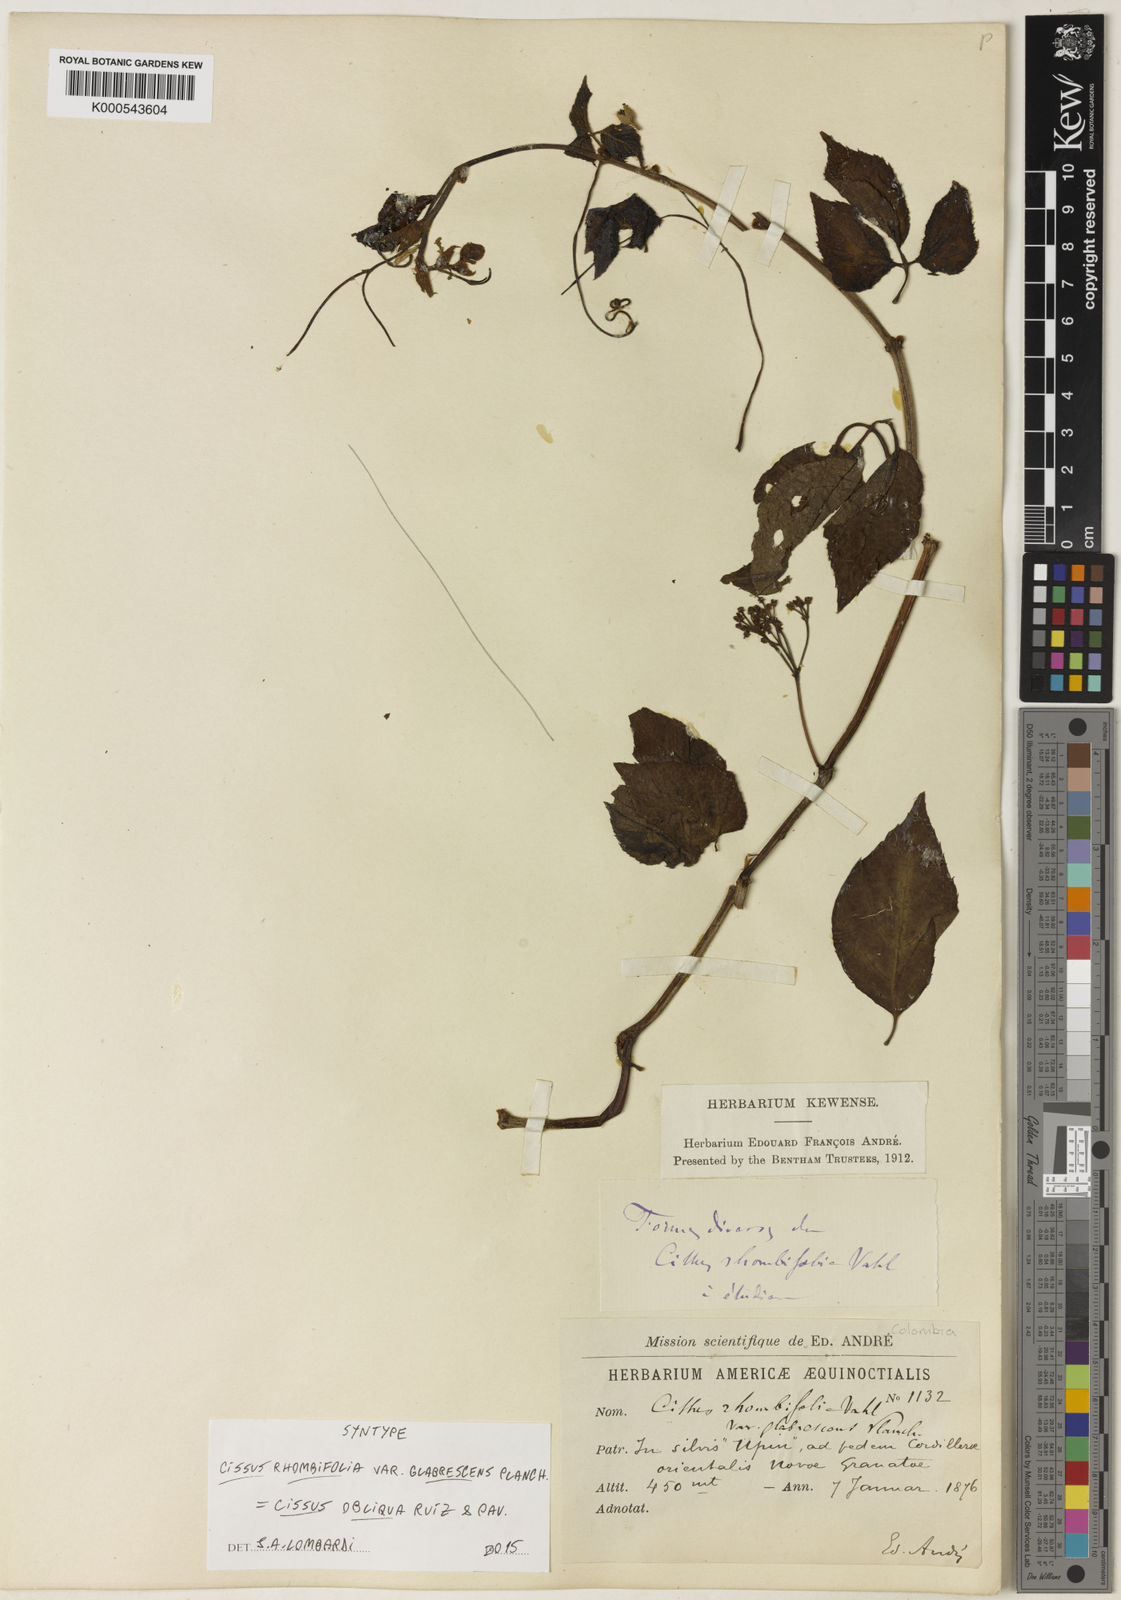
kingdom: Plantae
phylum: Tracheophyta
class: Magnoliopsida
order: Vitales
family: Vitaceae
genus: Cissus
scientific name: Cissus obliqua
